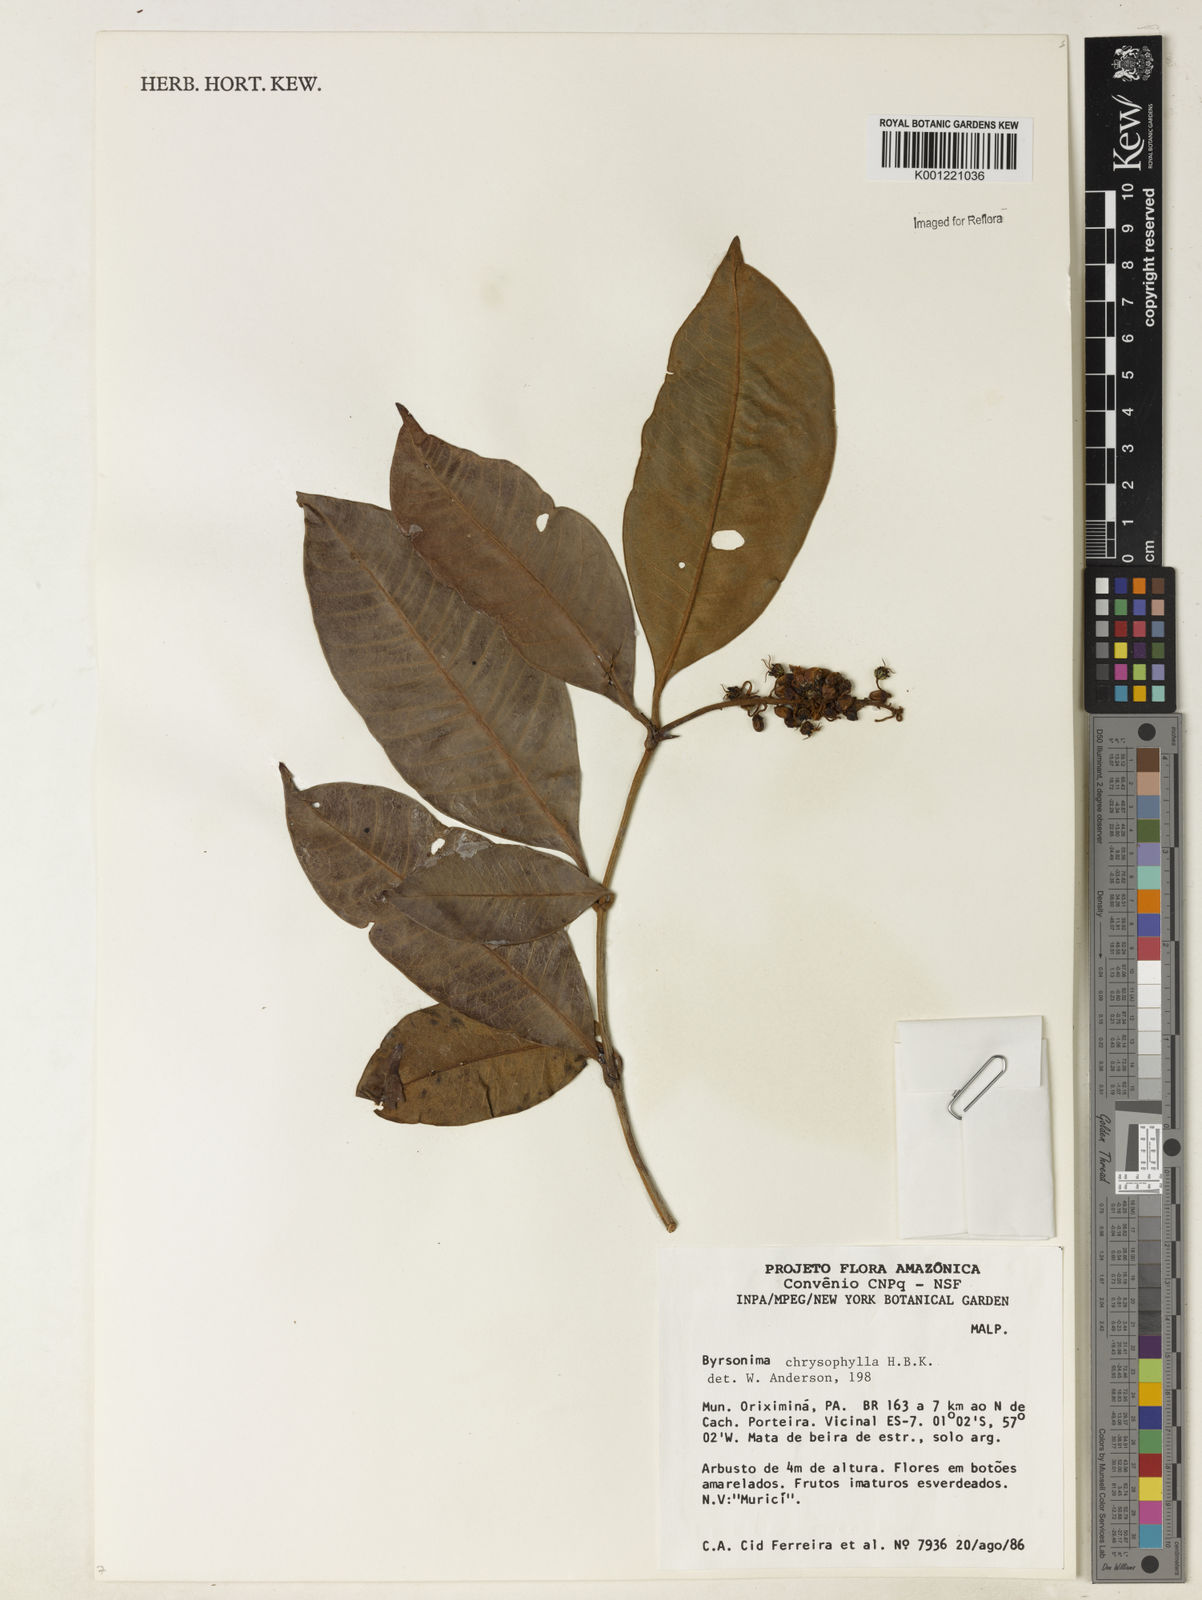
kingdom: Plantae
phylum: Tracheophyta
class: Magnoliopsida
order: Malpighiales
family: Malpighiaceae
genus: Byrsonima
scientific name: Byrsonima chrysophylla
